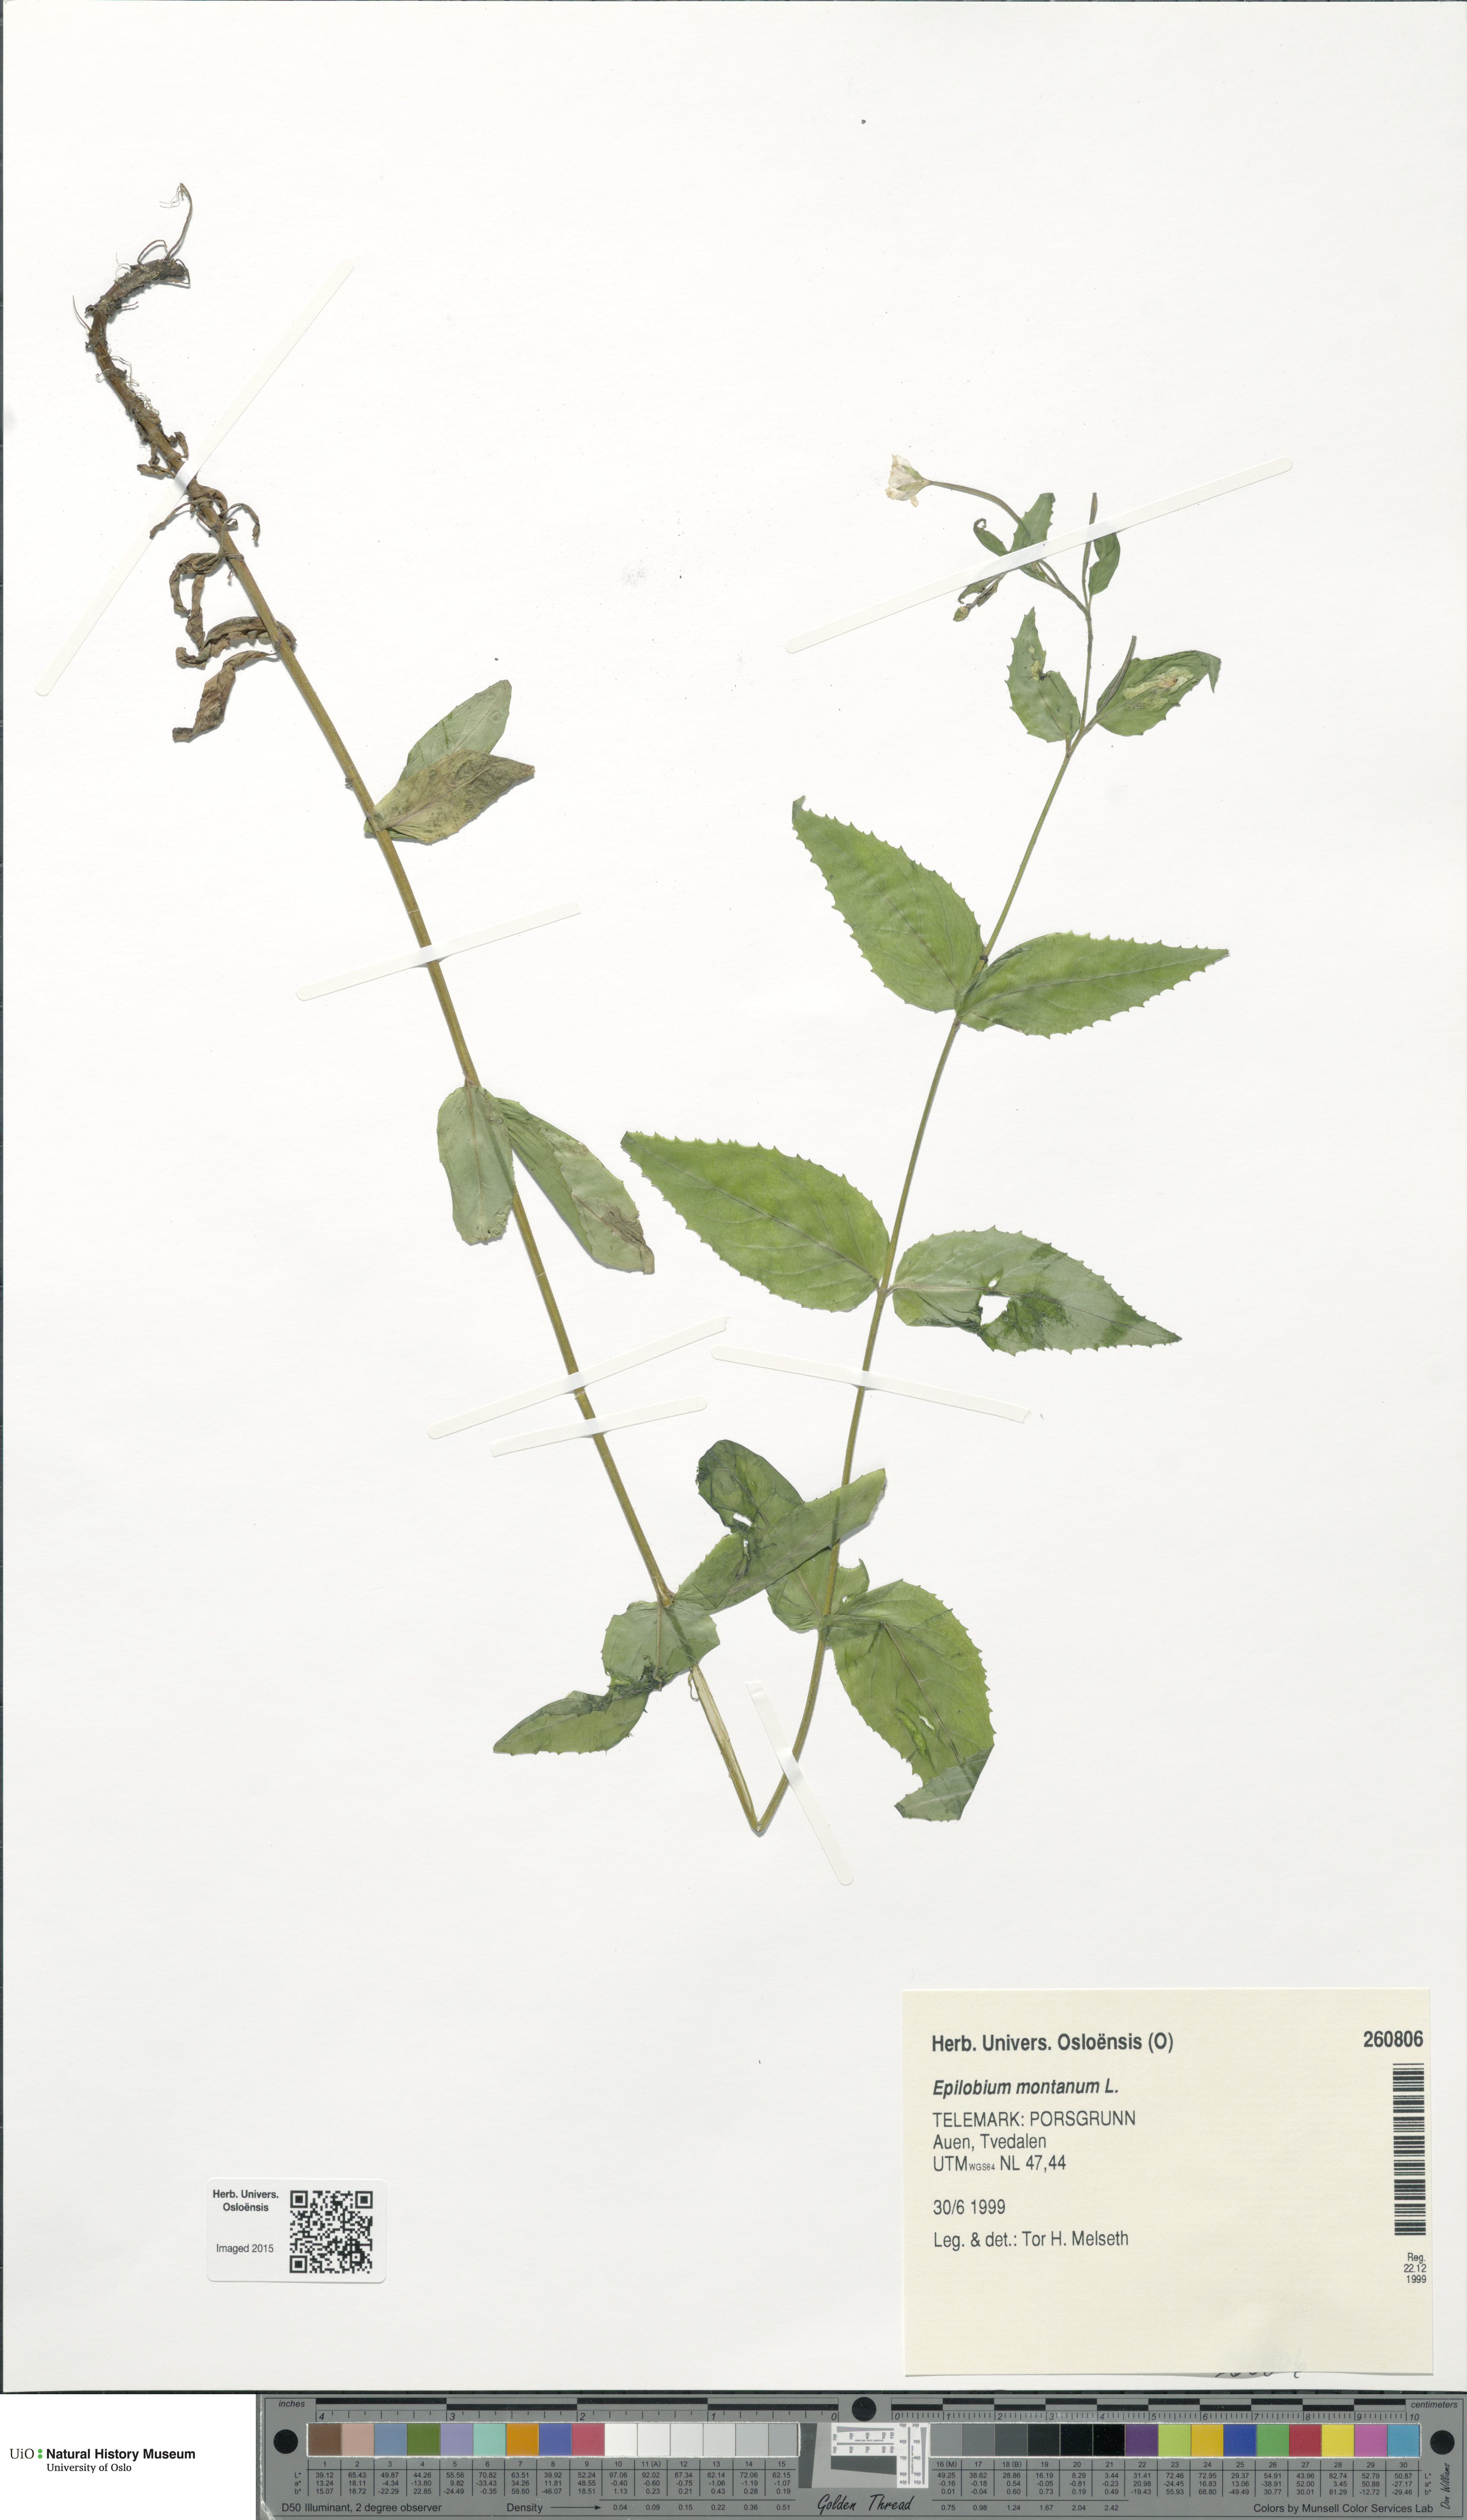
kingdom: Plantae
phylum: Tracheophyta
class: Magnoliopsida
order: Myrtales
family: Onagraceae
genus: Epilobium
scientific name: Epilobium montanum
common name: Broad-leaved willowherb
